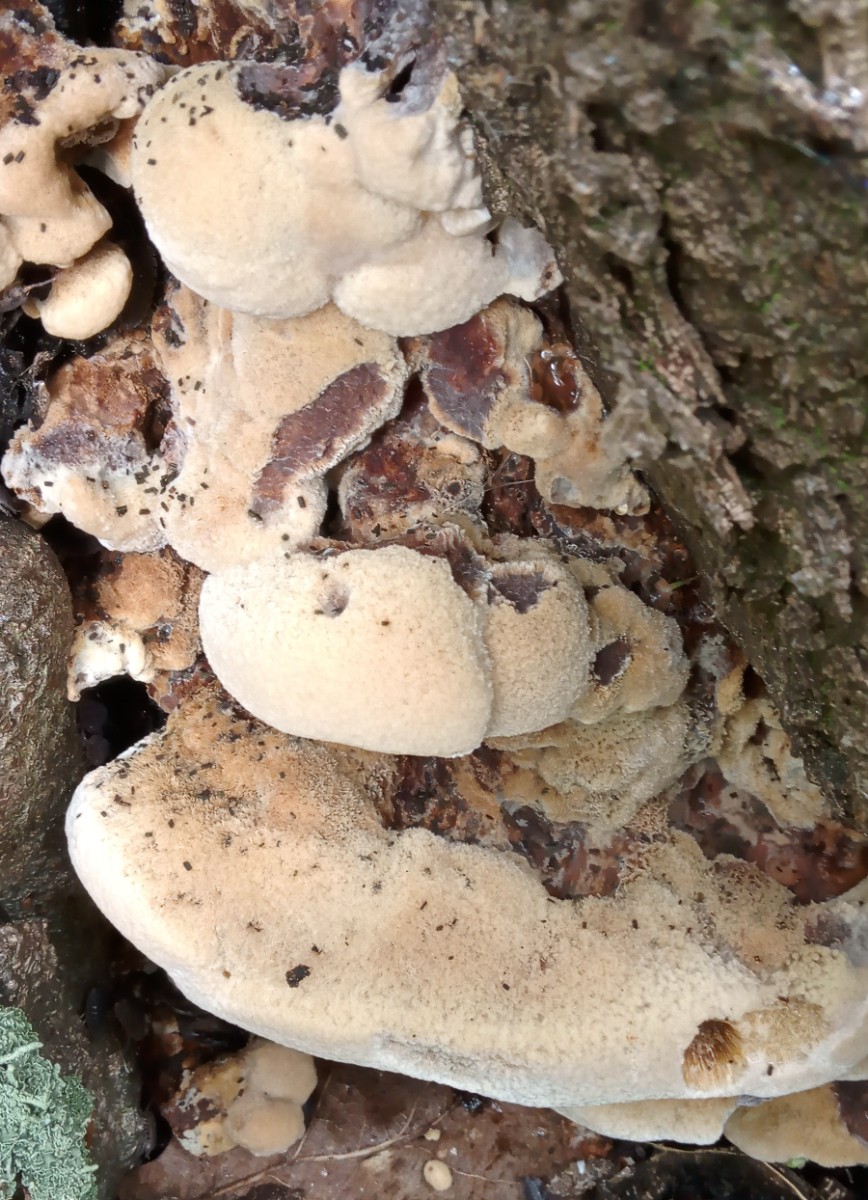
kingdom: Fungi
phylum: Basidiomycota
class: Agaricomycetes
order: Hymenochaetales
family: Hymenochaetaceae
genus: Inonotus
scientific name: Inonotus cuticularis
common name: kroghåret spejlporesvamp
